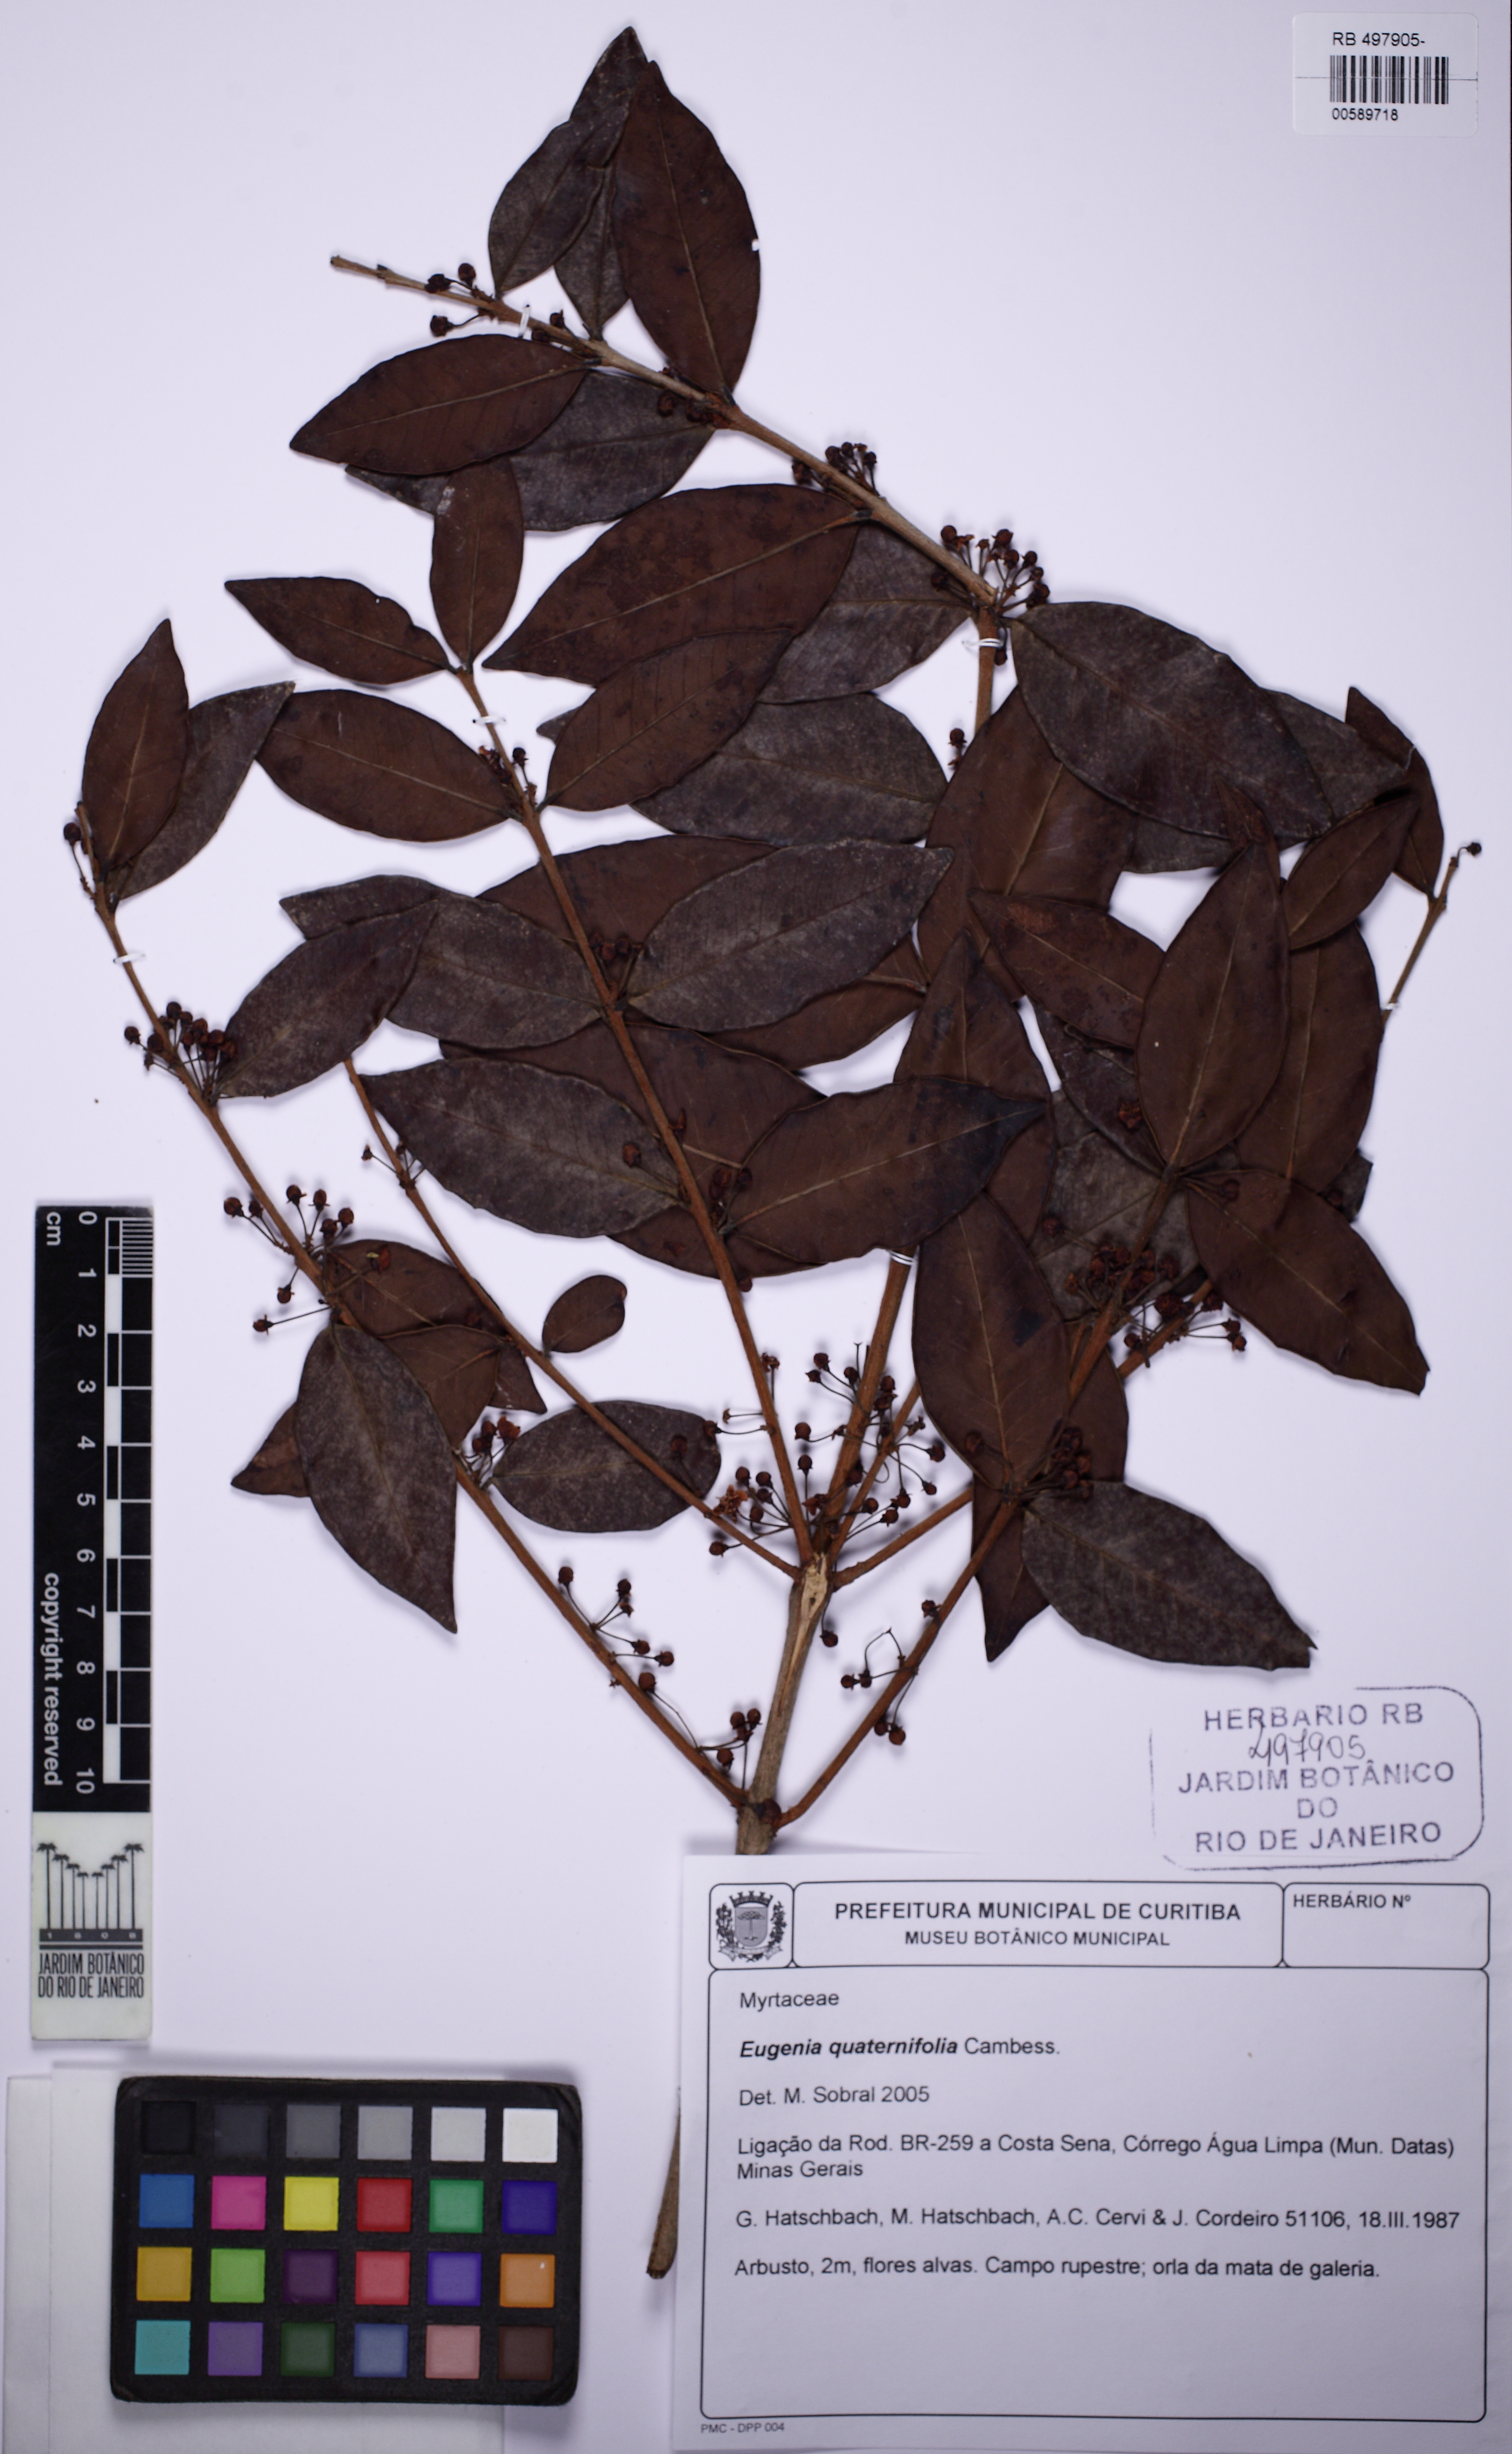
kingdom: Plantae
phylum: Tracheophyta
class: Magnoliopsida
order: Myrtales
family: Myrtaceae
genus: Eugenia
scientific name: Eugenia suberosa
